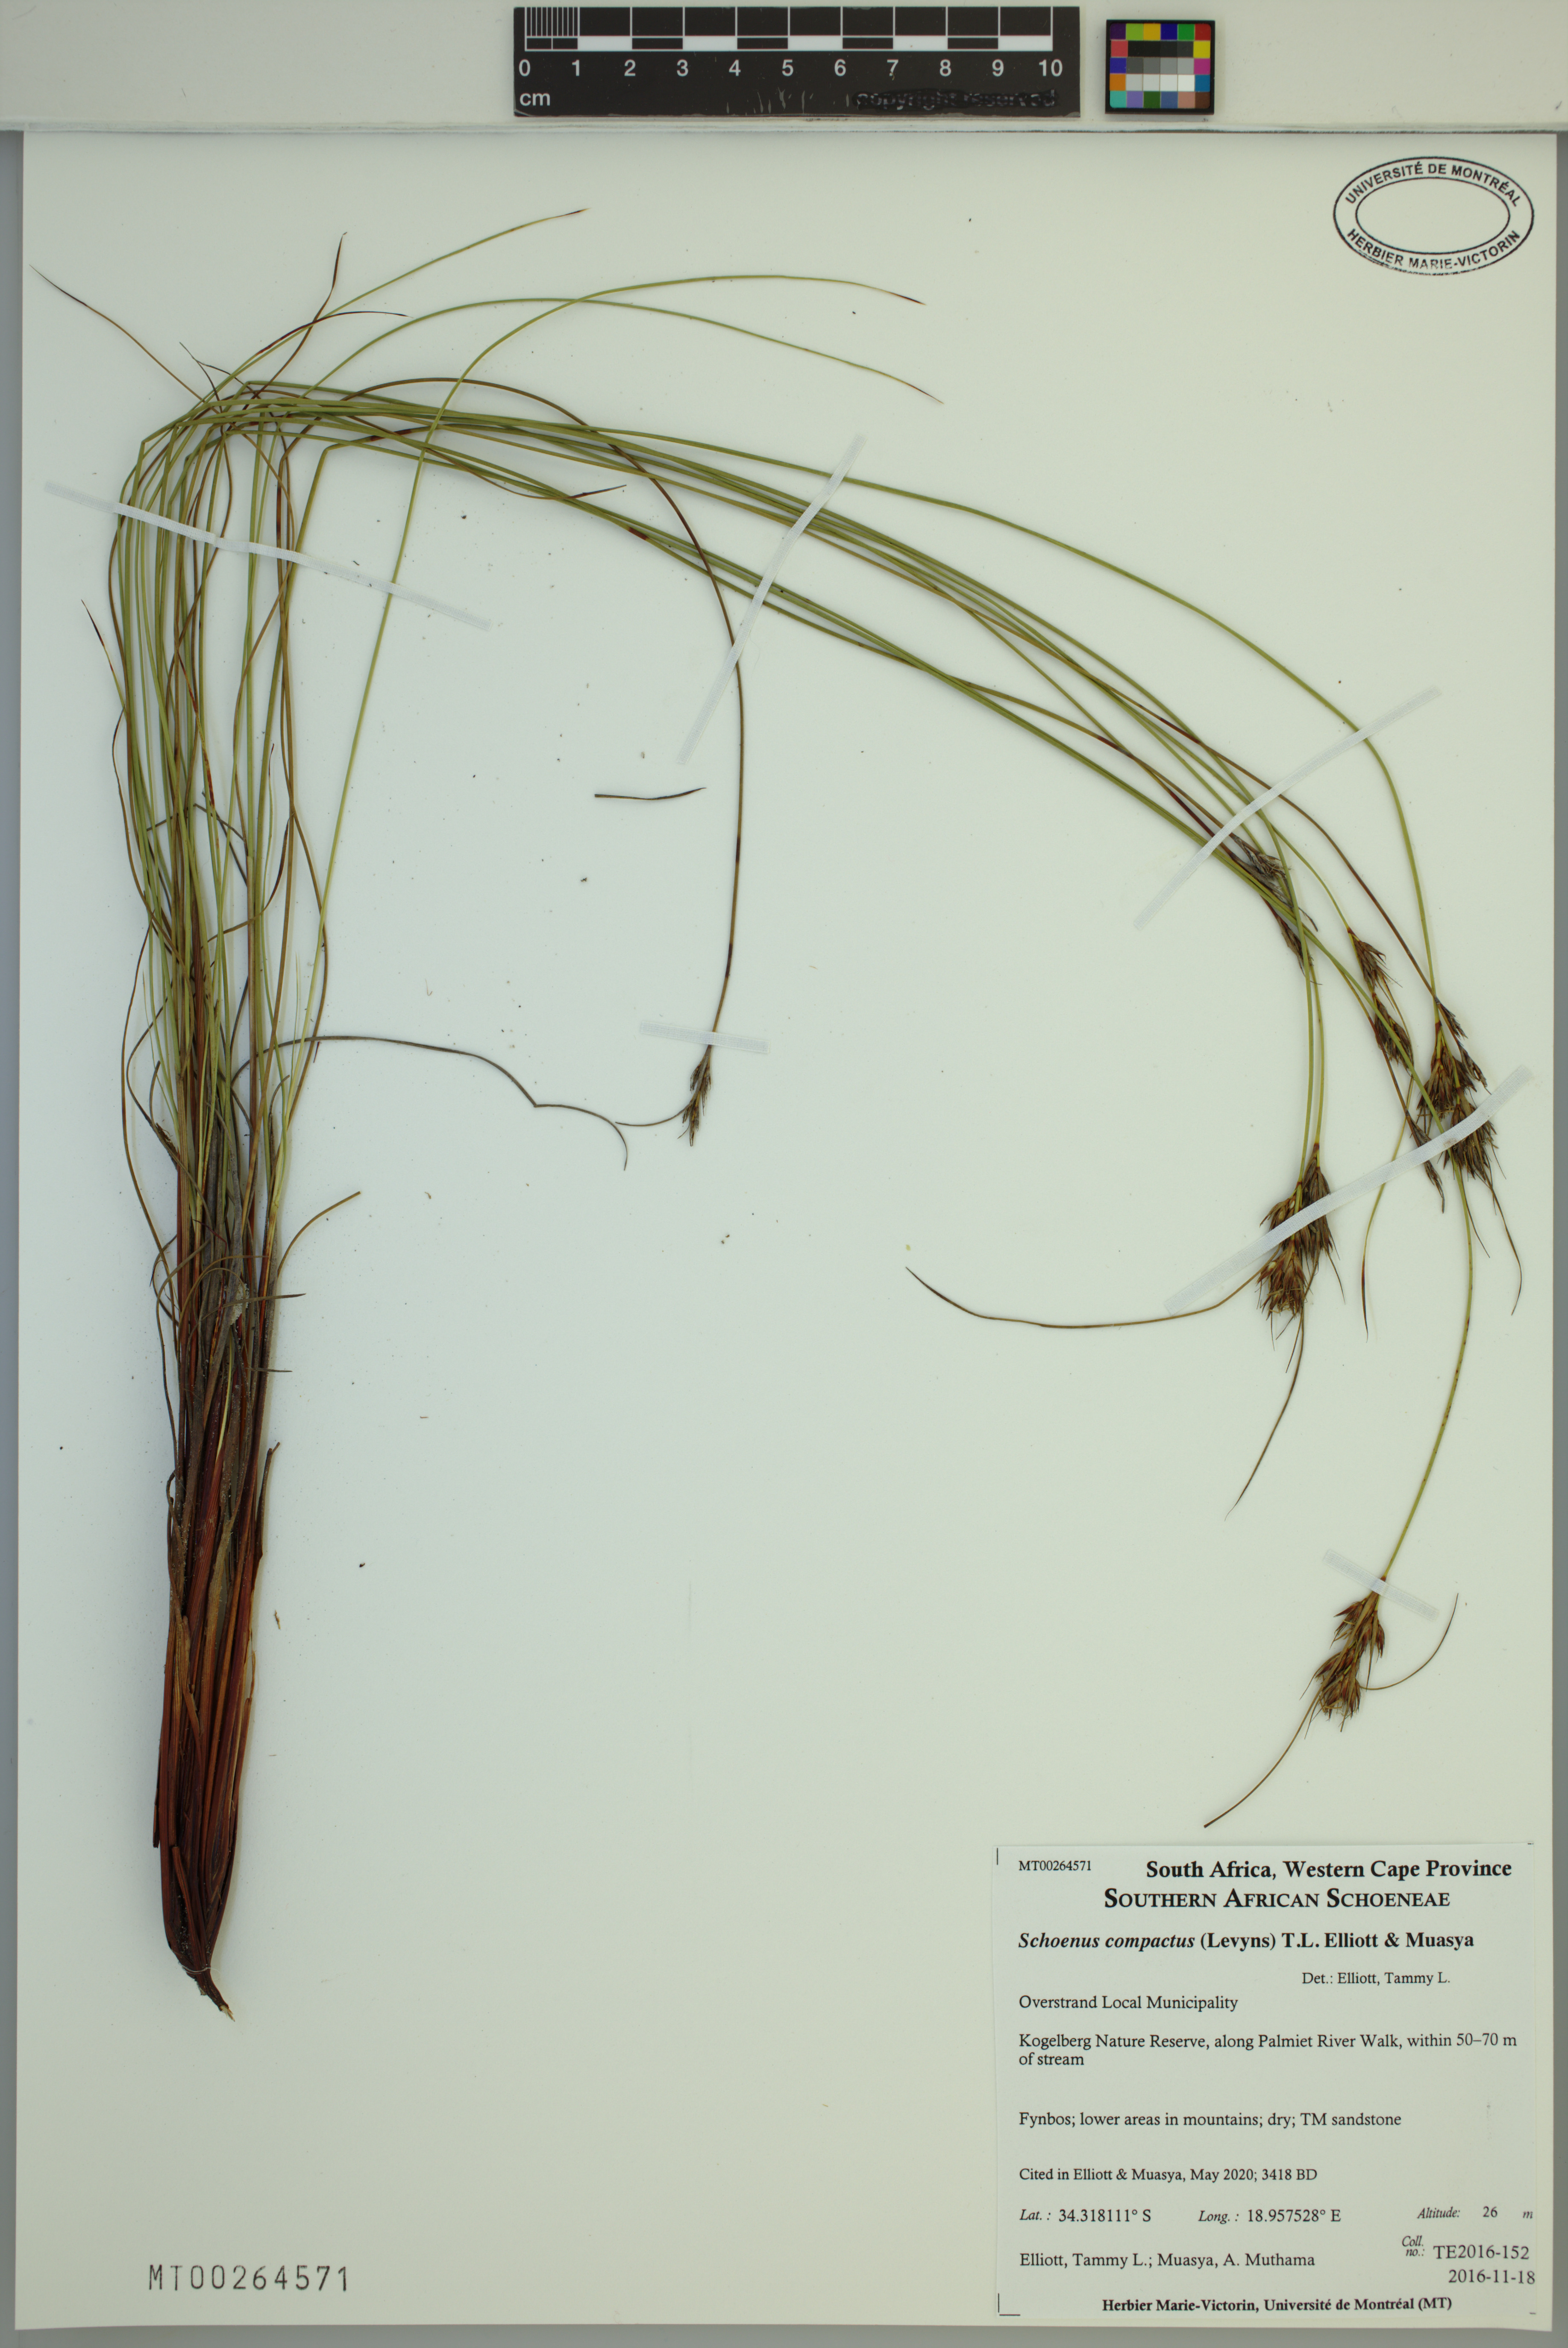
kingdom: Plantae
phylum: Tracheophyta
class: Liliopsida
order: Poales
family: Cyperaceae
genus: Schoenus
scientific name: Schoenus compactus
